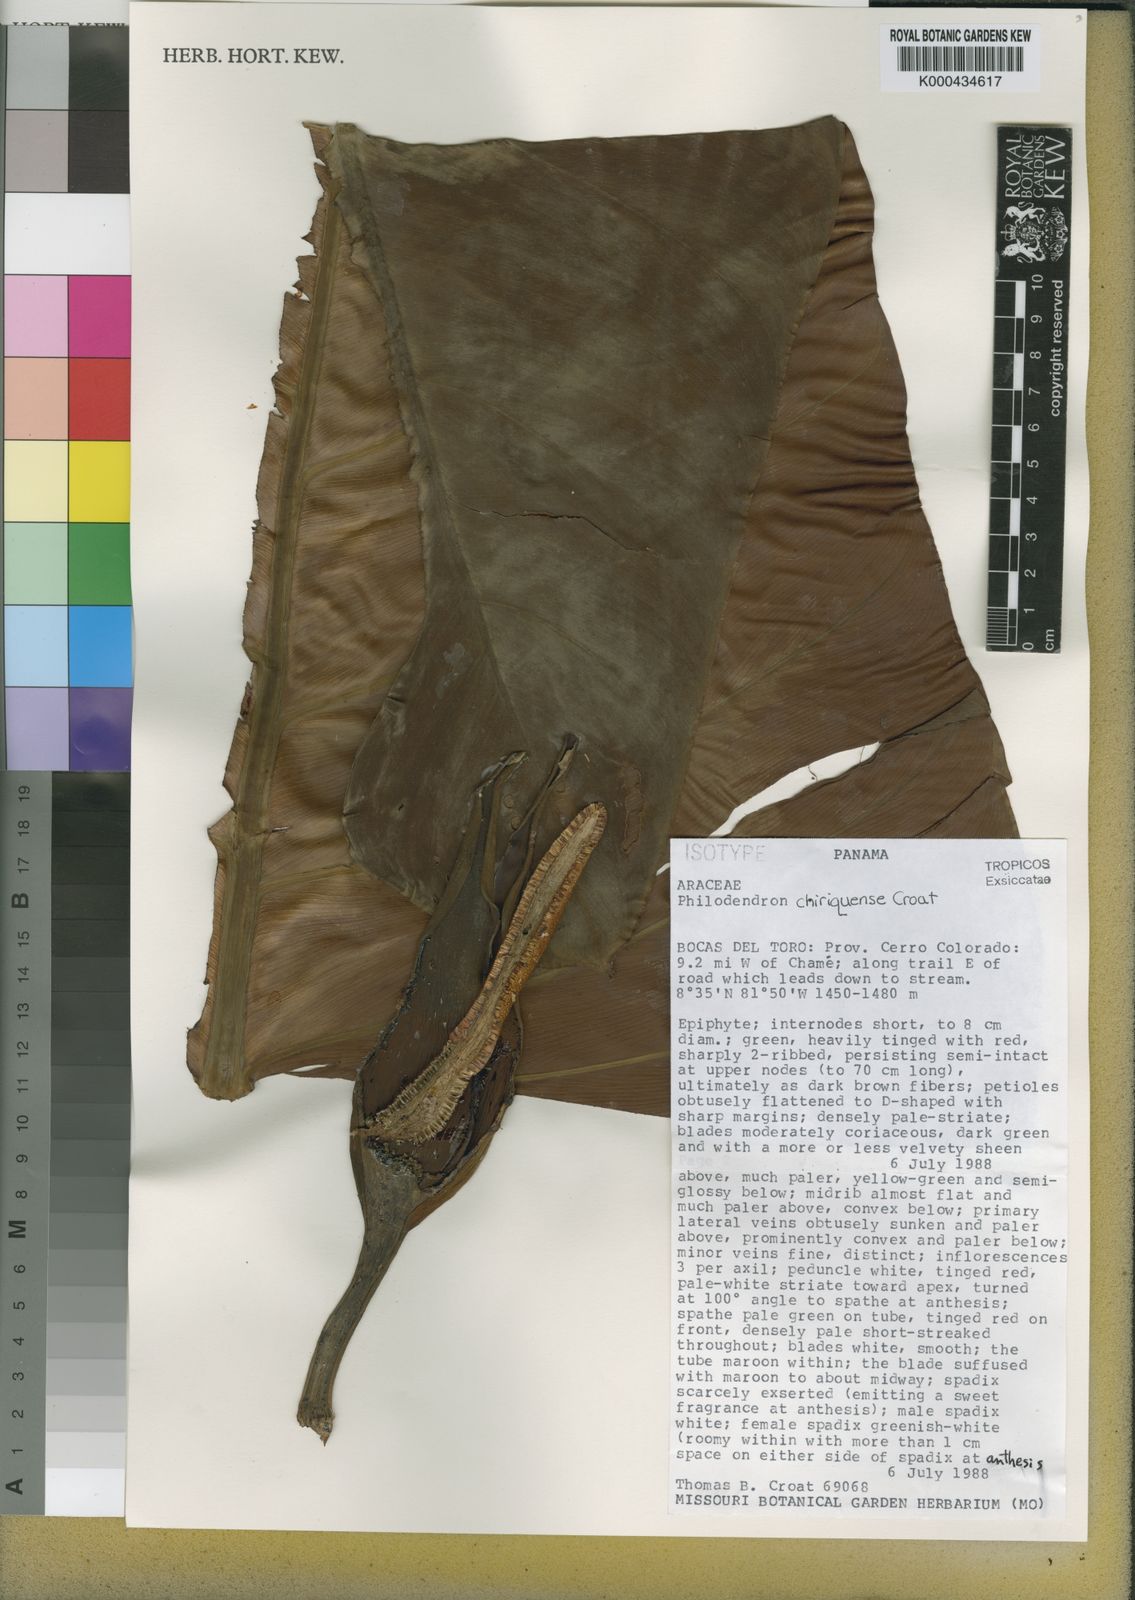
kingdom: Plantae
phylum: Tracheophyta
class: Liliopsida
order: Alismatales
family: Araceae
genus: Philodendron
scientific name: Philodendron chiriquense
